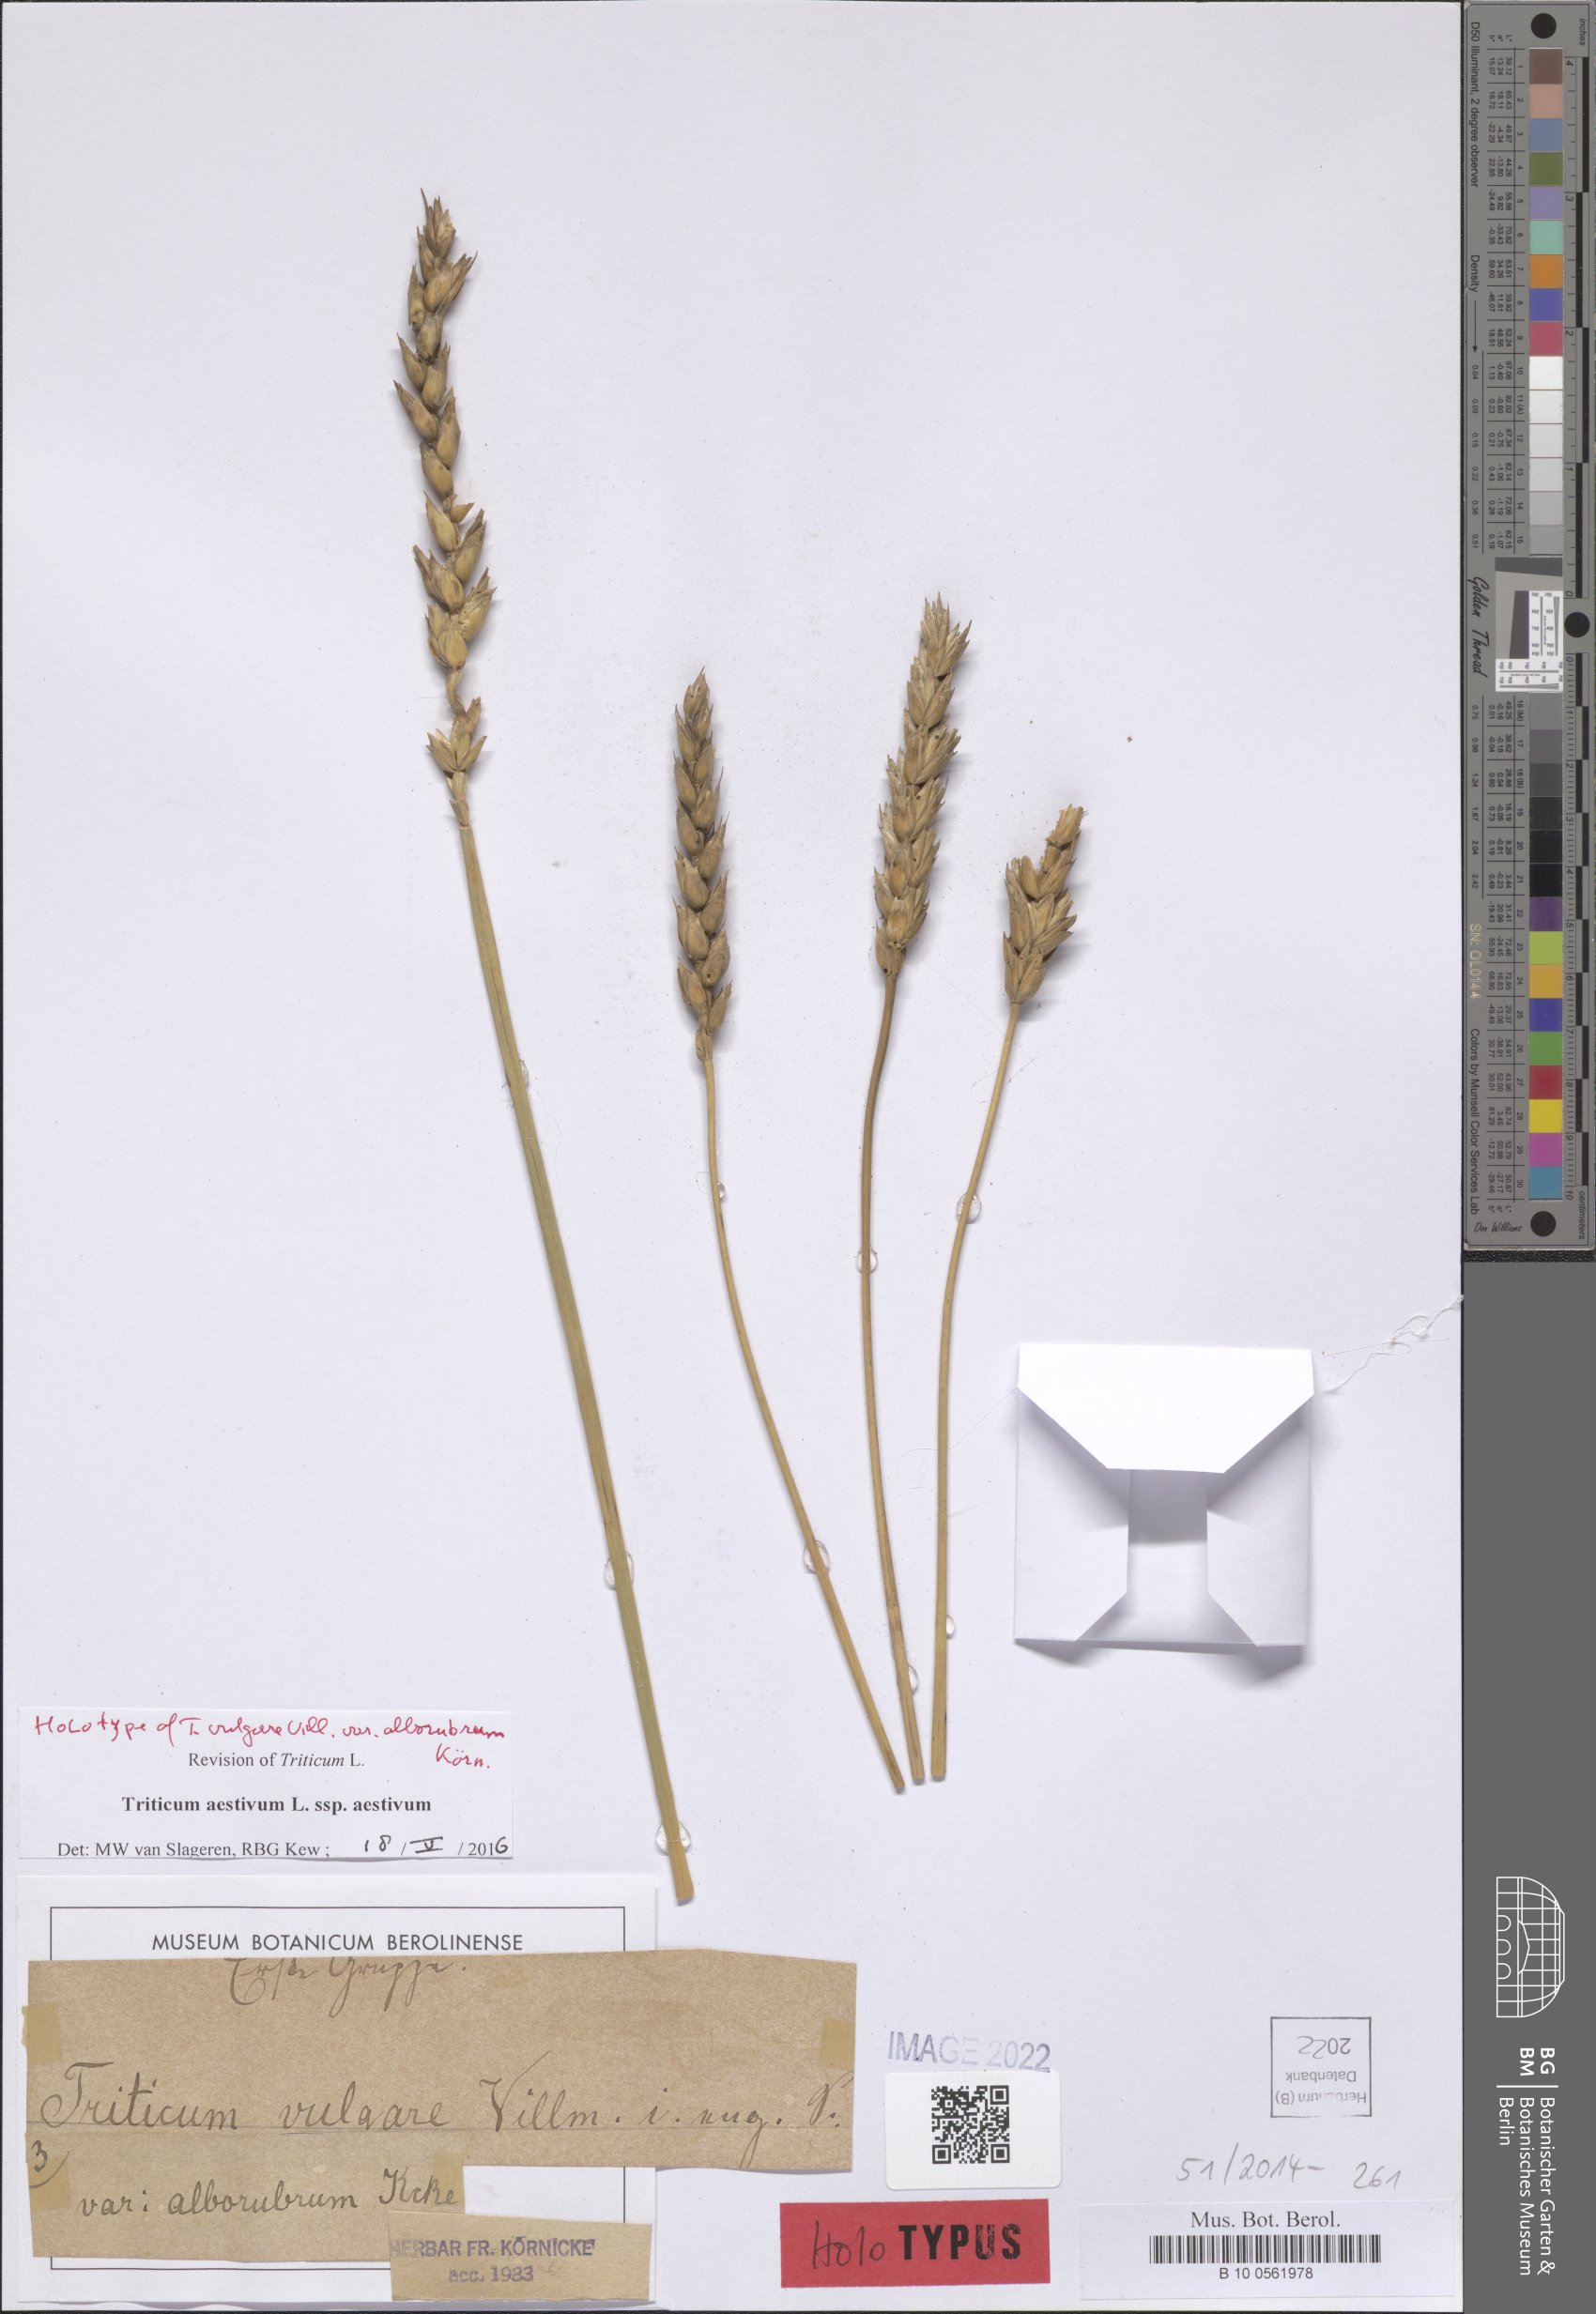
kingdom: Plantae
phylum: Tracheophyta
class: Liliopsida
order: Poales
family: Poaceae
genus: Triticum
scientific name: Triticum aestivum
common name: Common wheat
